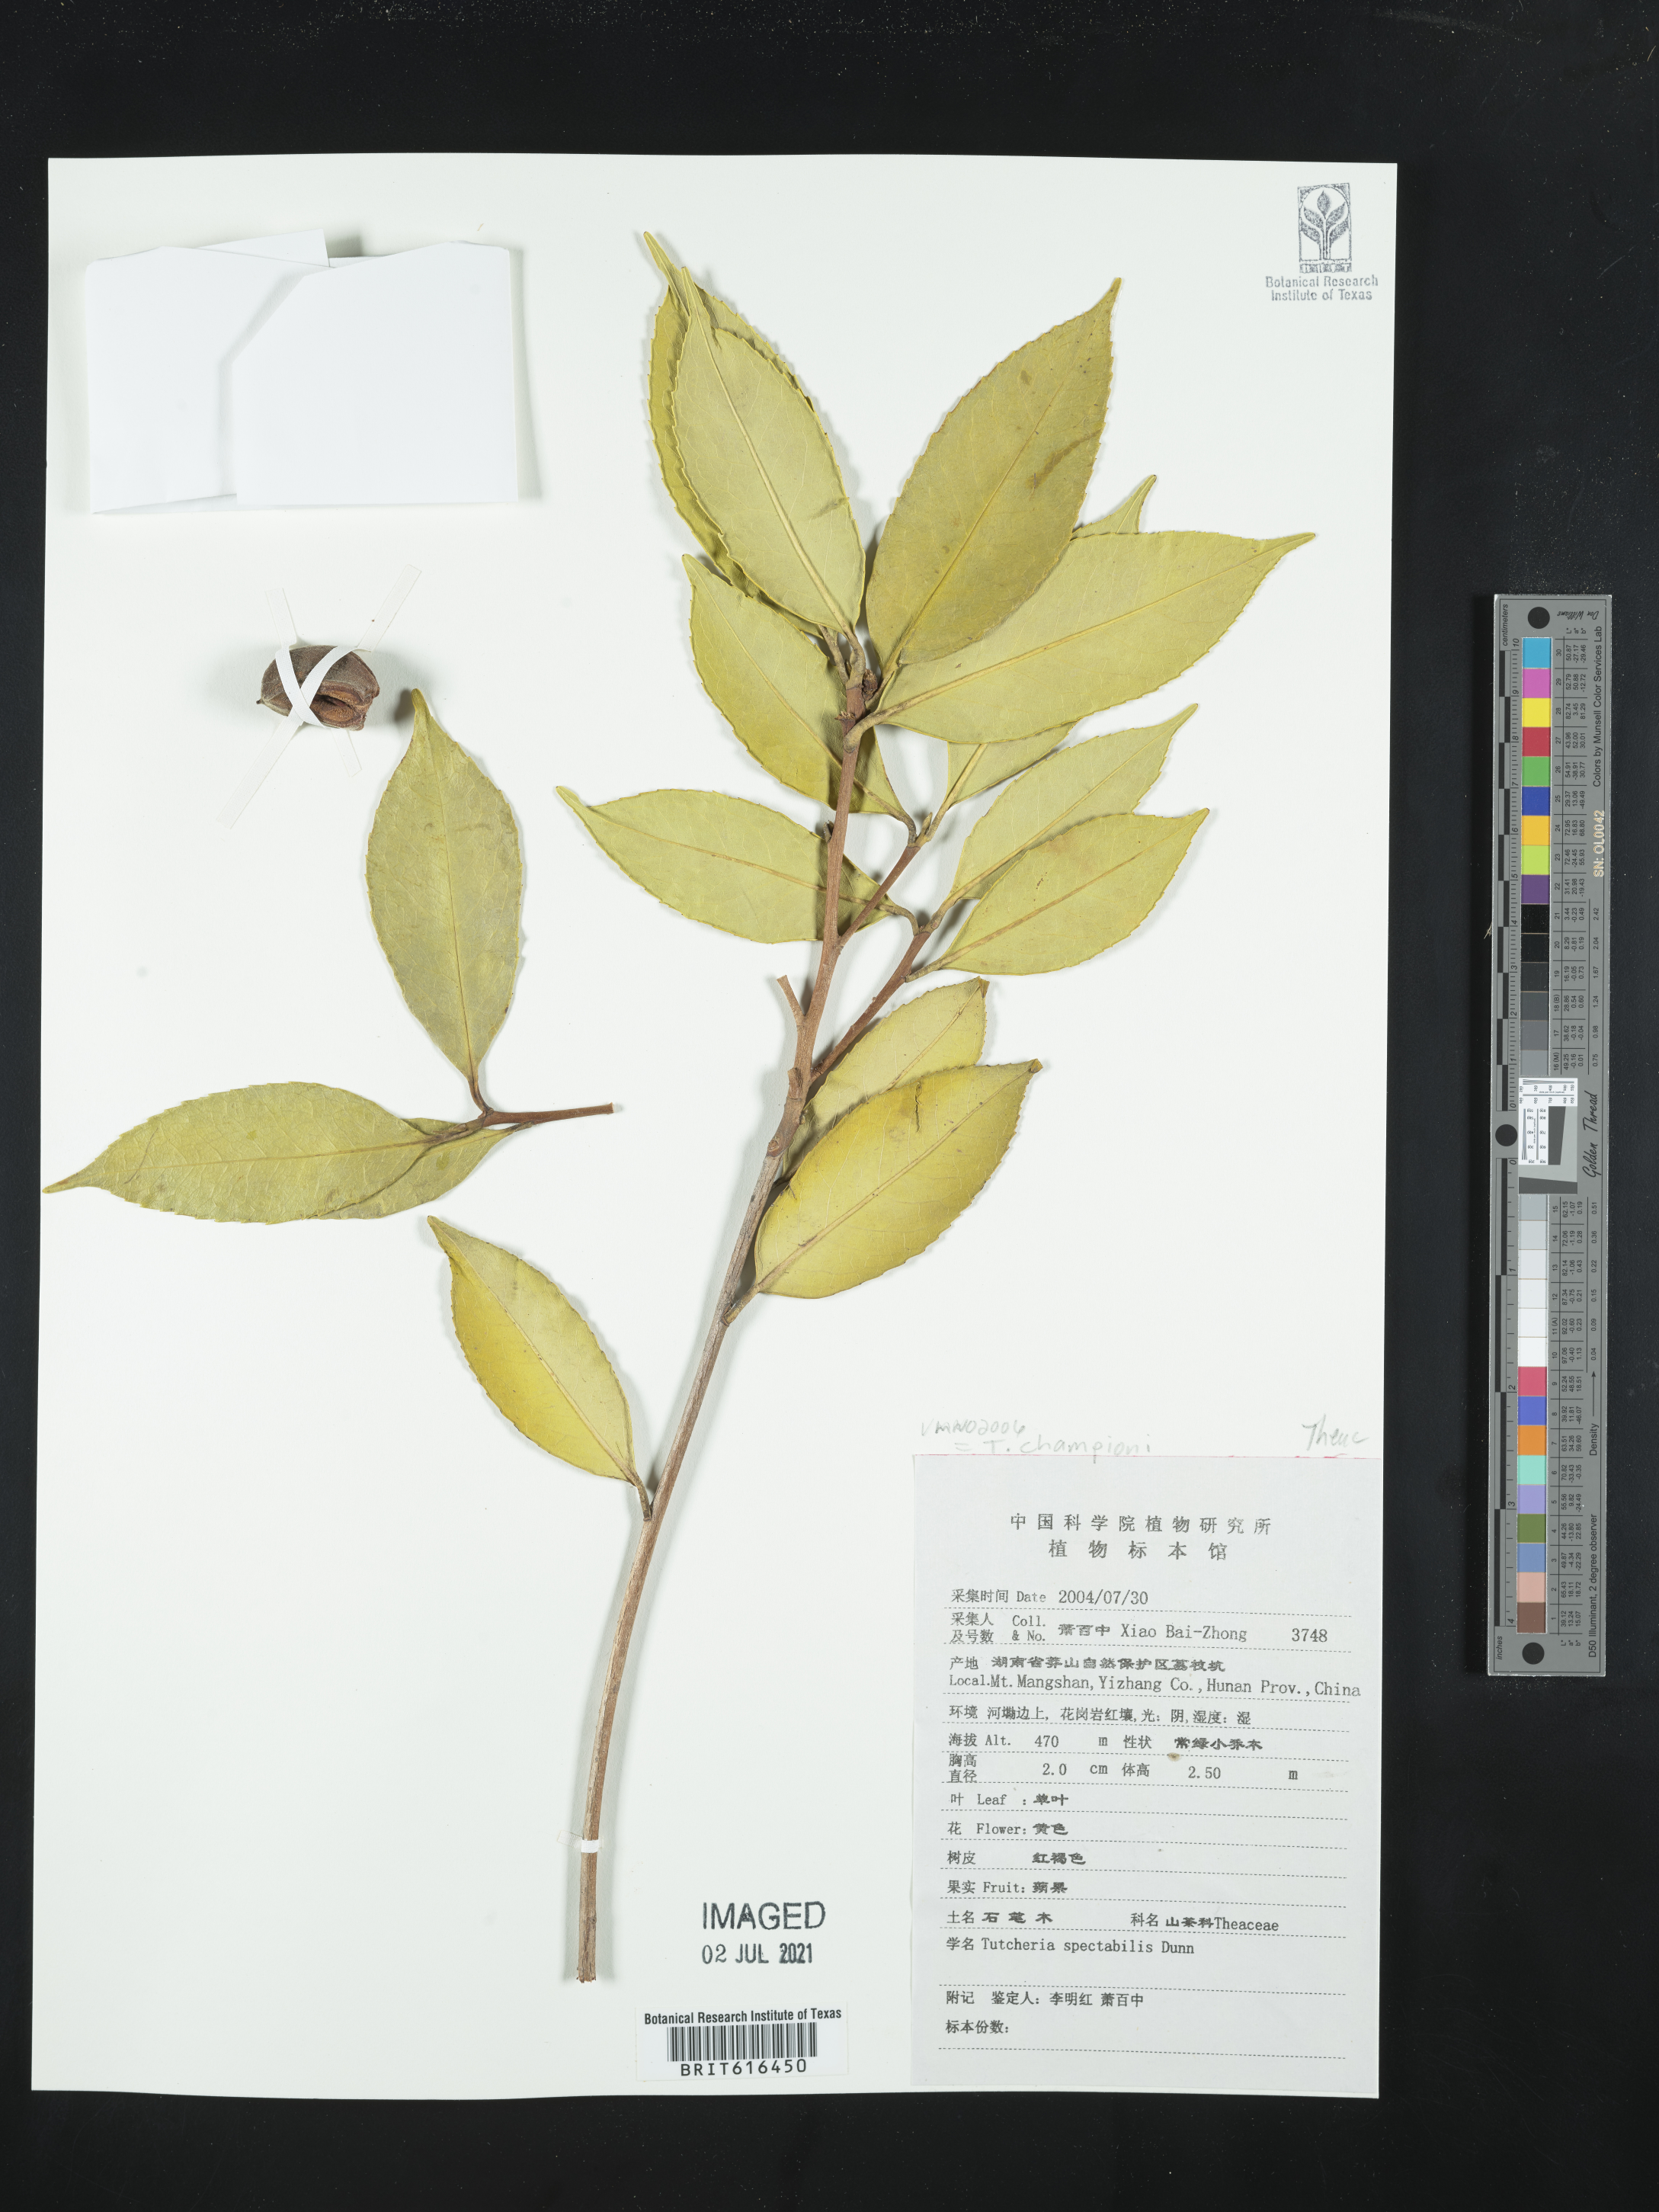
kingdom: Plantae
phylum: Tracheophyta
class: Magnoliopsida
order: Ericales
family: Theaceae
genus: Pyrenaria
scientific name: Pyrenaria spectabilis
